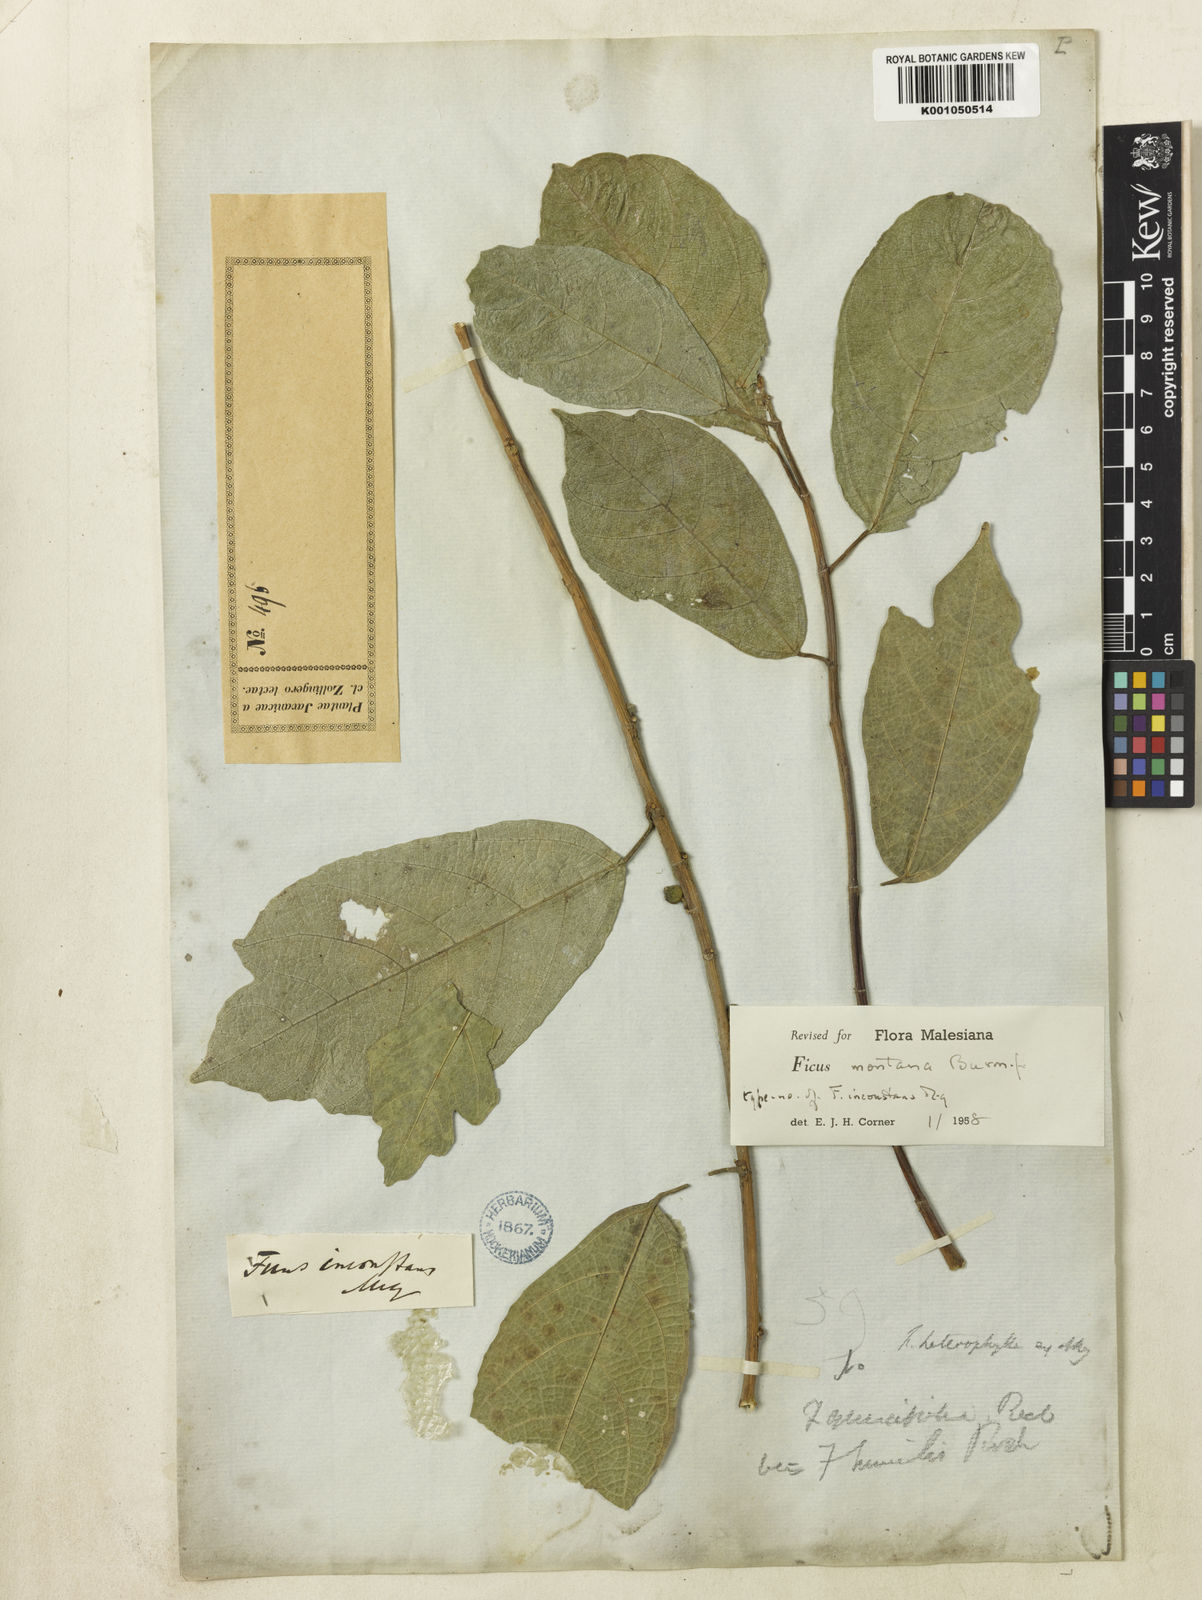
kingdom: Plantae
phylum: Tracheophyta
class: Magnoliopsida
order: Rosales
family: Moraceae
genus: Ficus
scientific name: Ficus copiosa
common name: Plentiful fig
